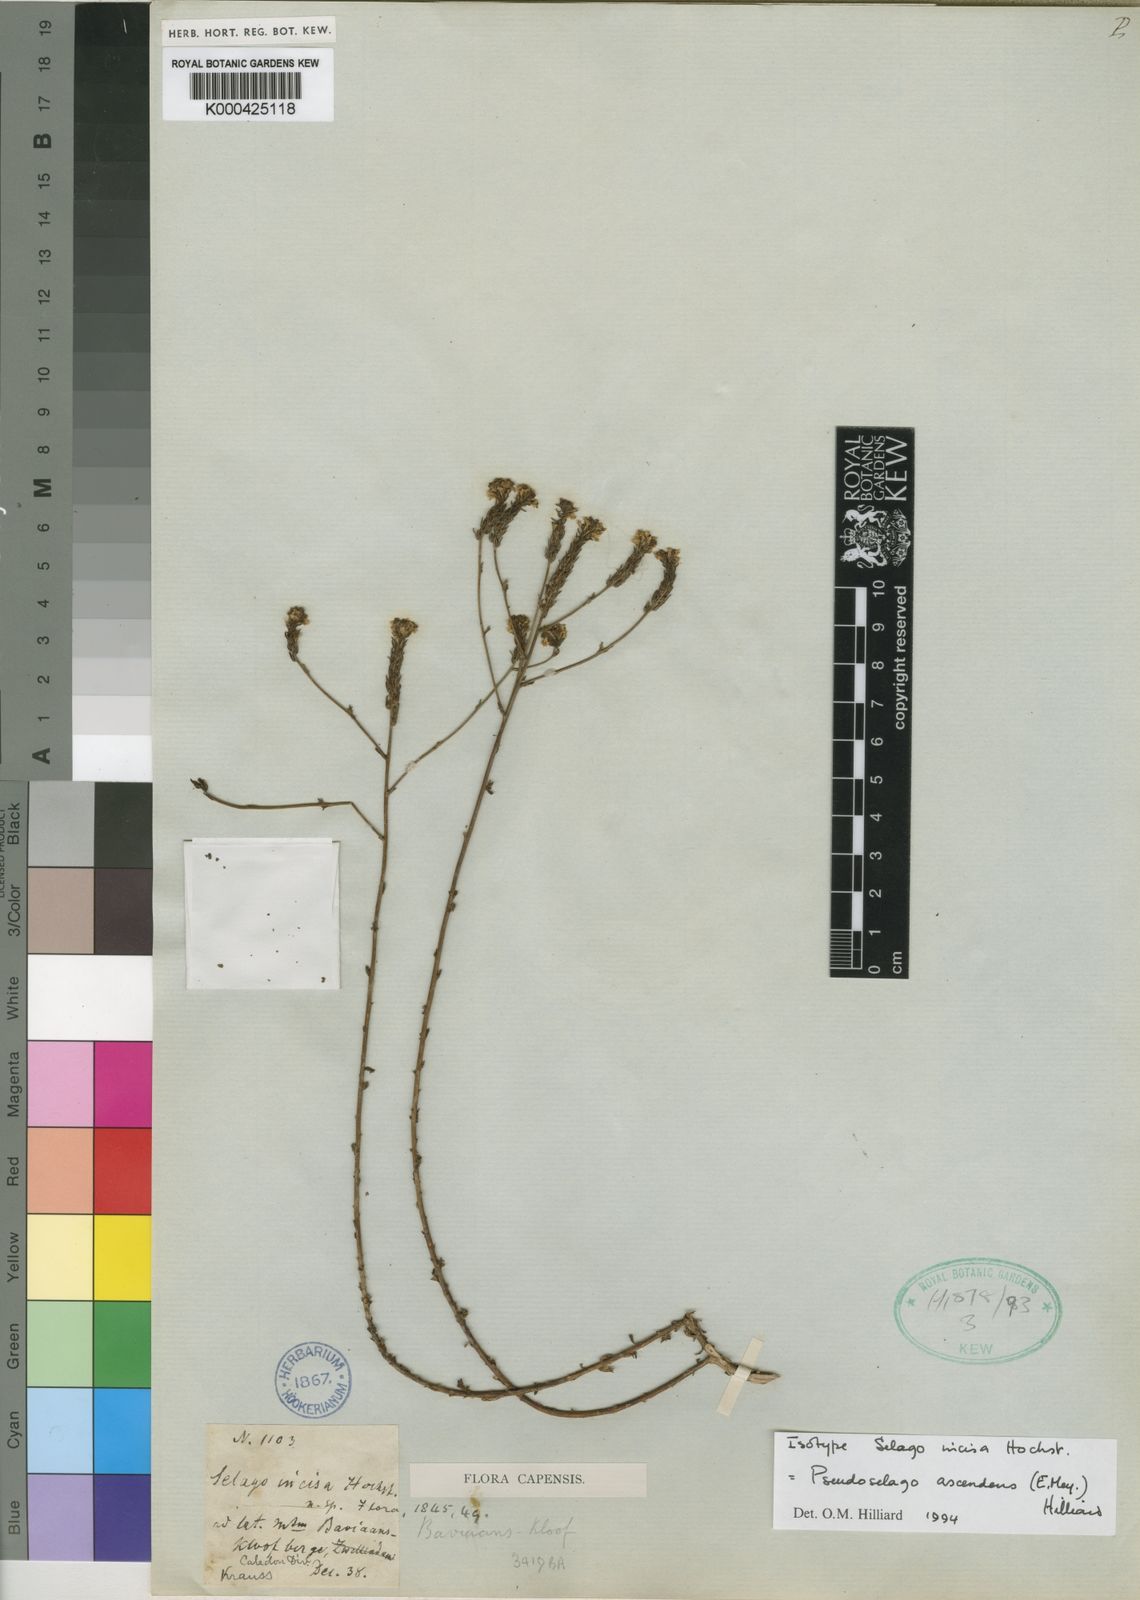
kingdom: Plantae
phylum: Tracheophyta
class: Magnoliopsida
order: Lamiales
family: Scrophulariaceae
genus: Pseudoselago
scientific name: Pseudoselago ascendens
